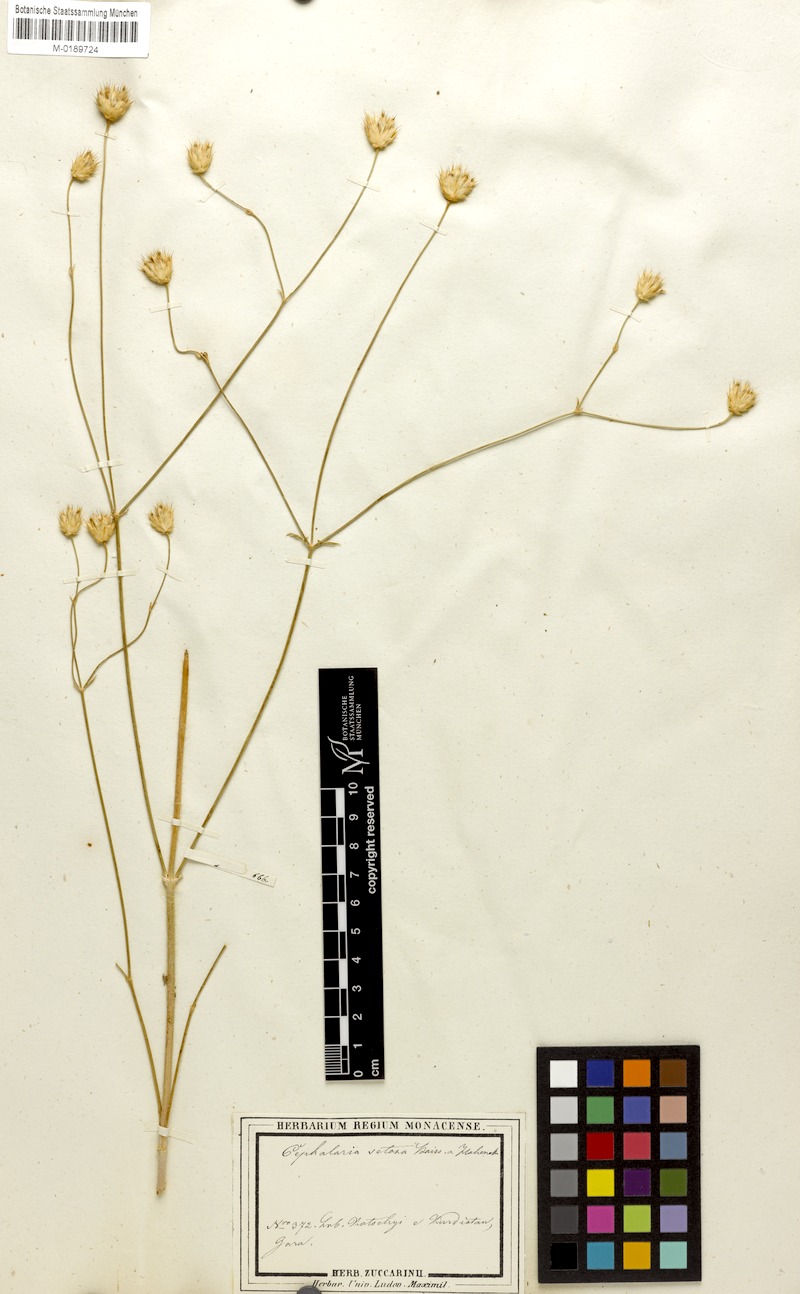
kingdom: Plantae
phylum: Tracheophyta
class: Magnoliopsida
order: Dipsacales
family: Caprifoliaceae
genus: Cephalaria
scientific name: Cephalaria setosa
